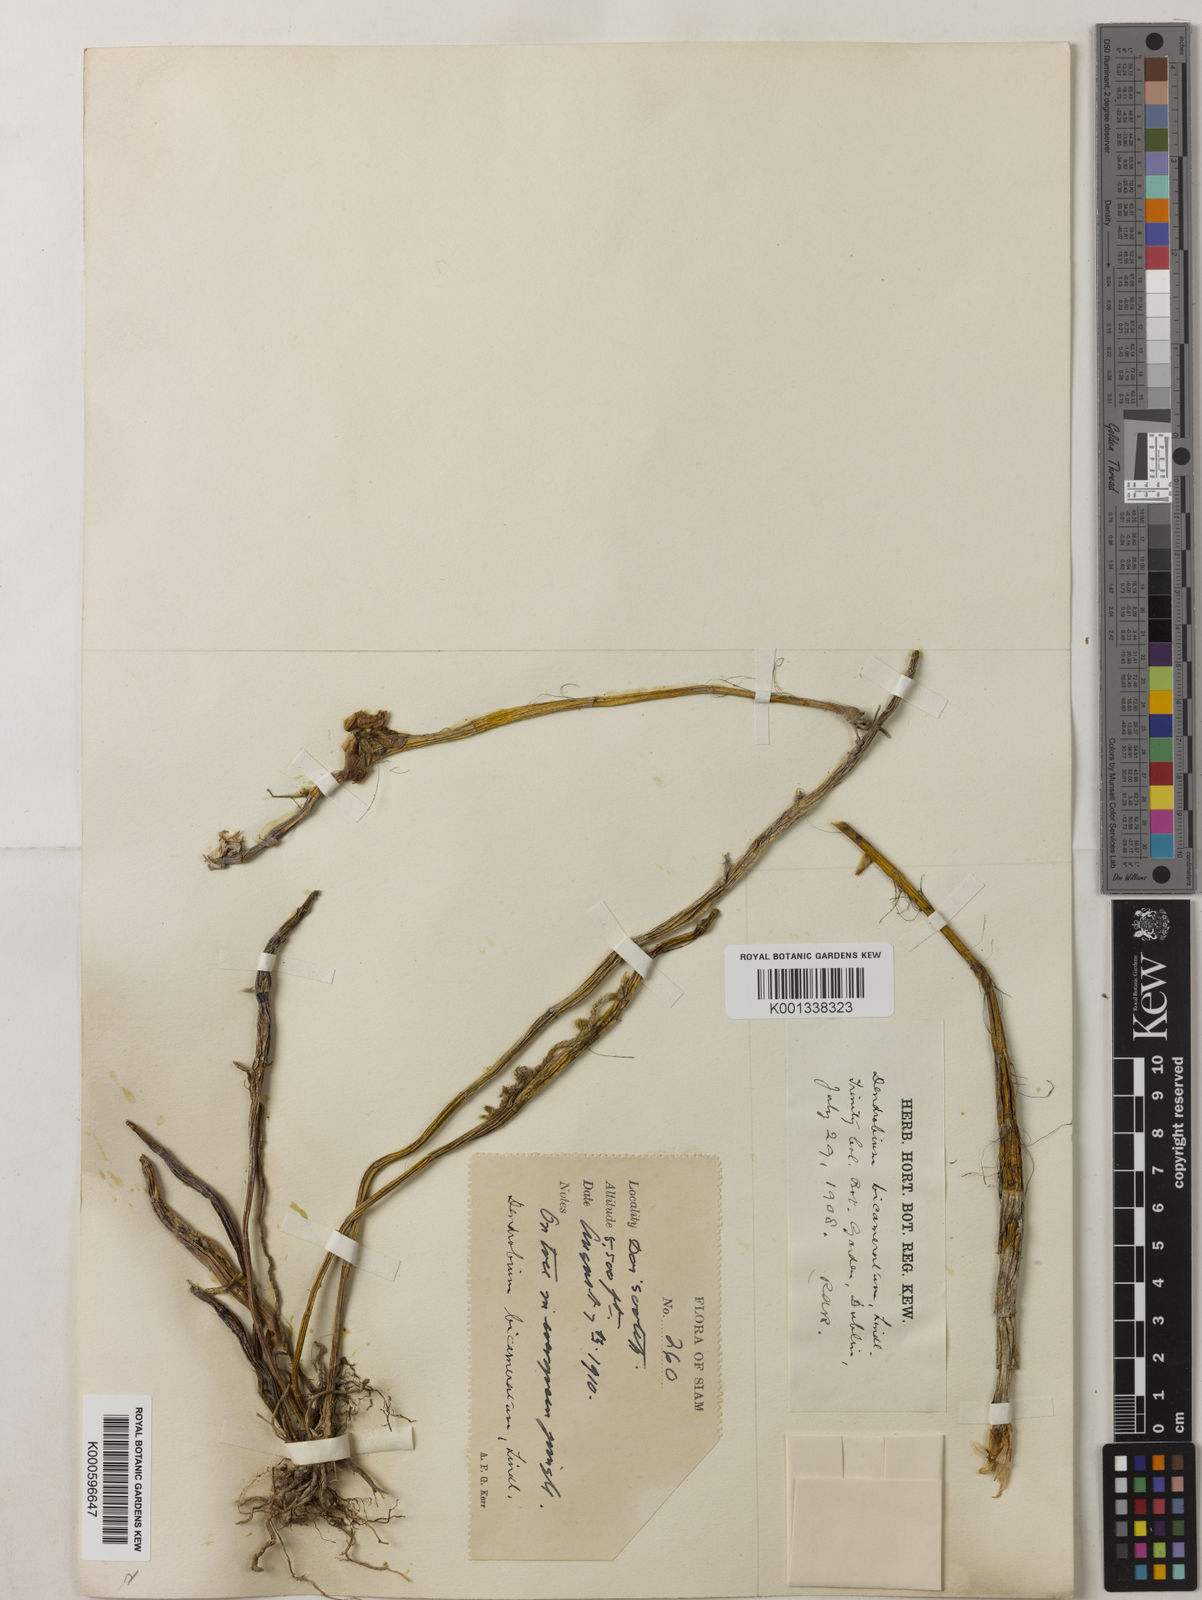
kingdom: Plantae
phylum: Tracheophyta
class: Liliopsida
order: Asparagales
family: Orchidaceae
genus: Dendrobium
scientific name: Dendrobium bicameratum
